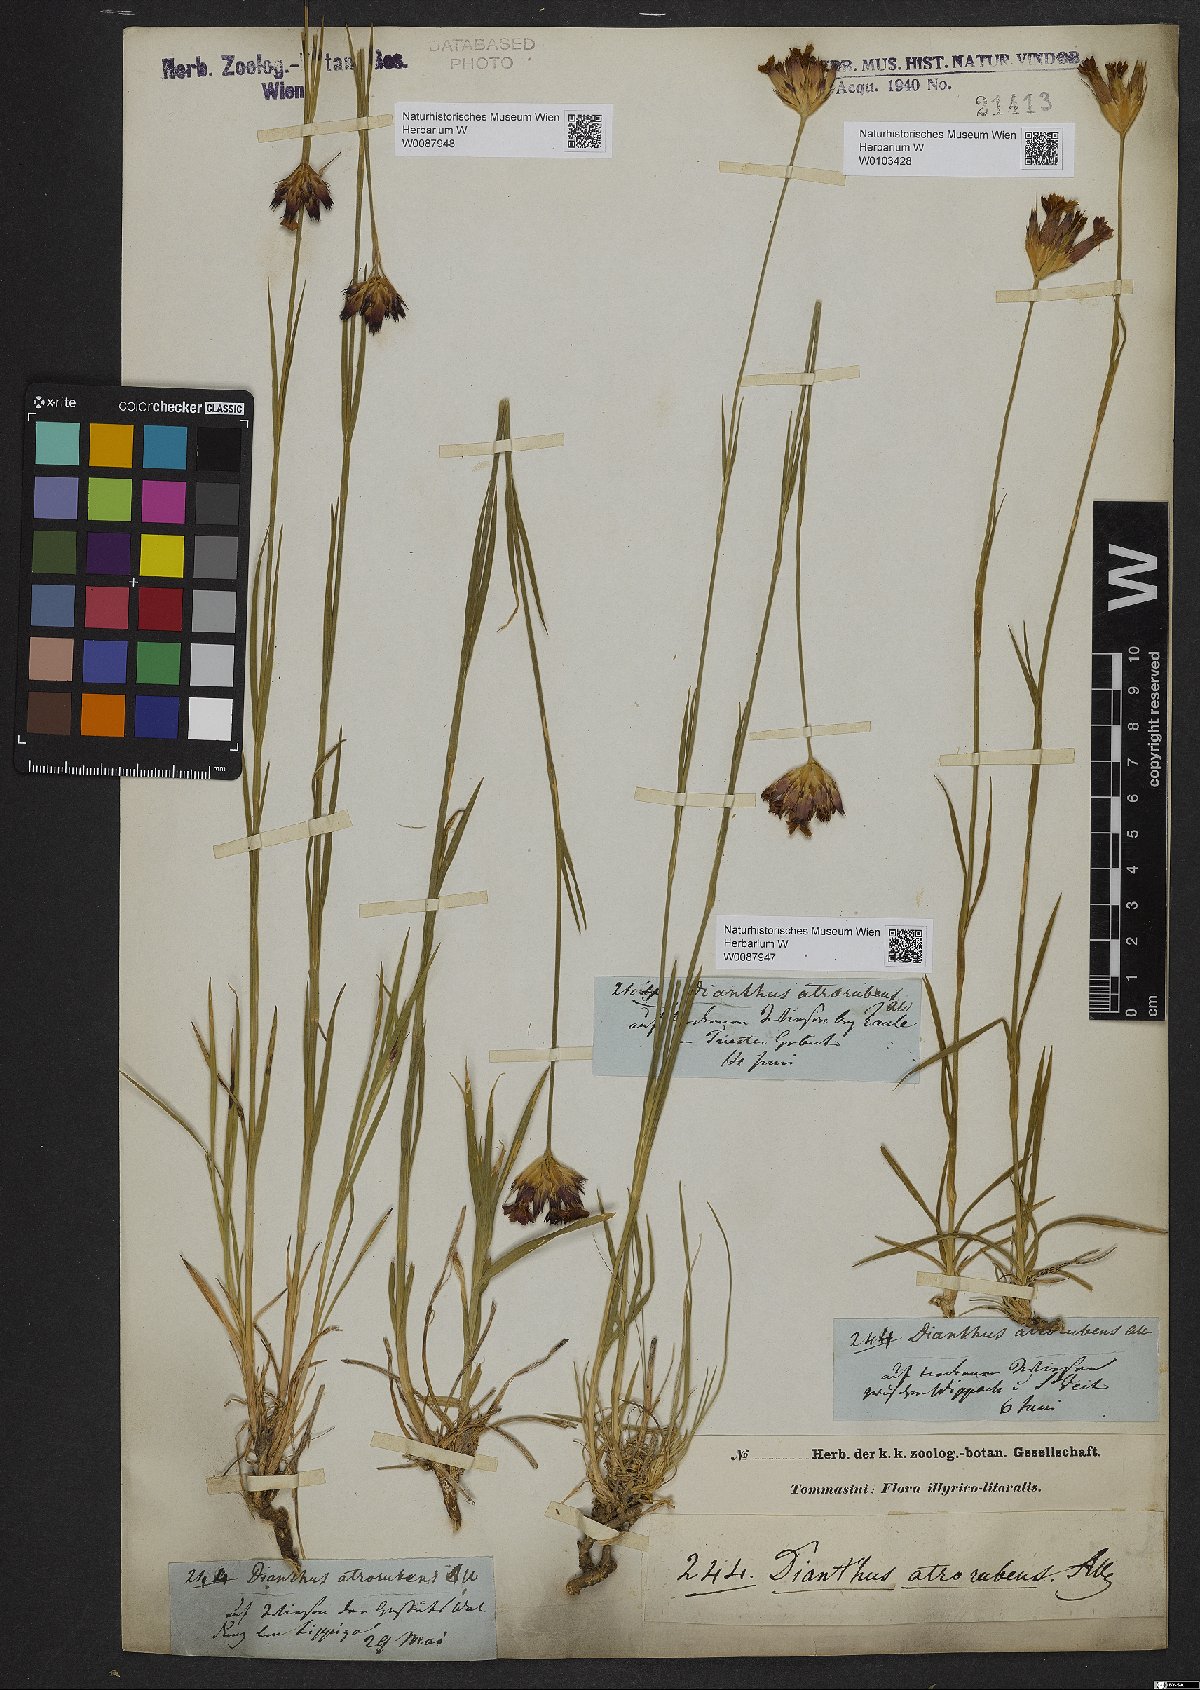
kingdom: Plantae
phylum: Tracheophyta
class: Magnoliopsida
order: Caryophyllales
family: Caryophyllaceae
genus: Dianthus
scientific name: Dianthus carthusianorum
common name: Carthusian pink
